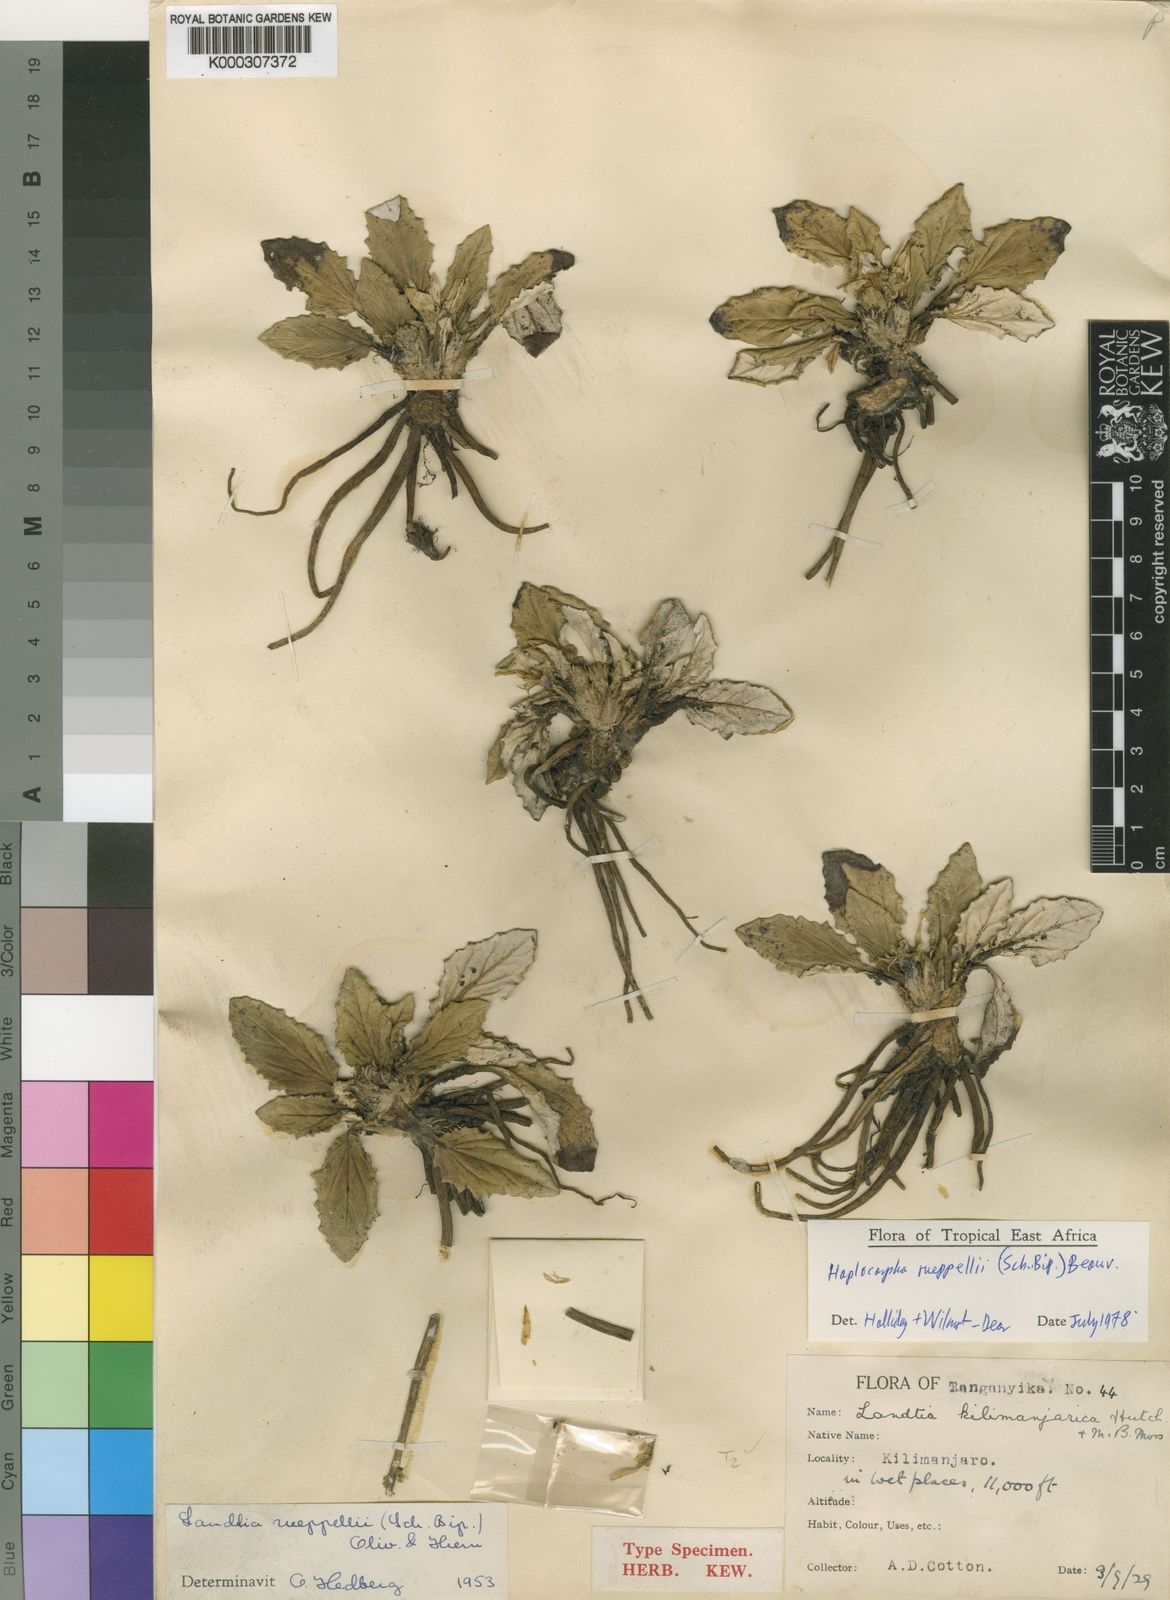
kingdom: Plantae
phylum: Tracheophyta
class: Magnoliopsida
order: Asterales
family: Asteraceae
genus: Haplocarpha
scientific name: Haplocarpha rueppelii
